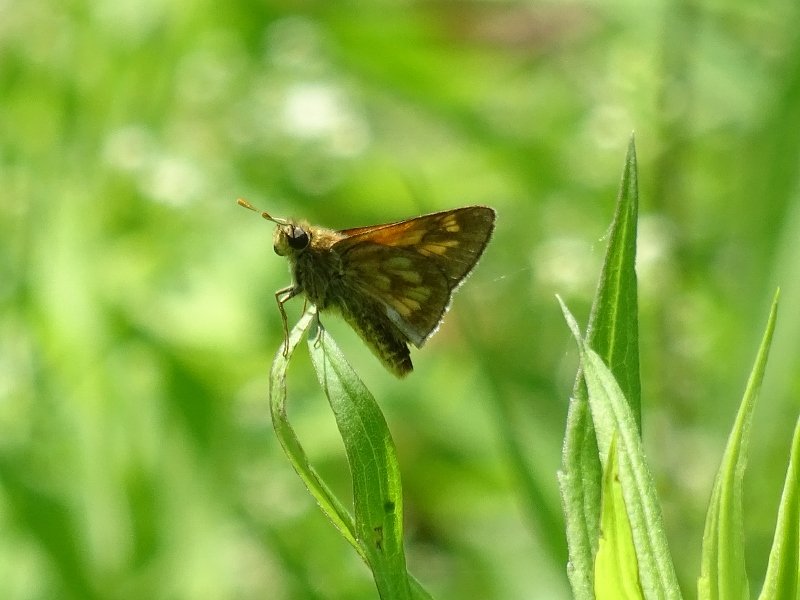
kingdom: Animalia
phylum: Arthropoda
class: Insecta
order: Lepidoptera
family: Hesperiidae
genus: Polites
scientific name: Polites
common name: Long Dash Skipper
